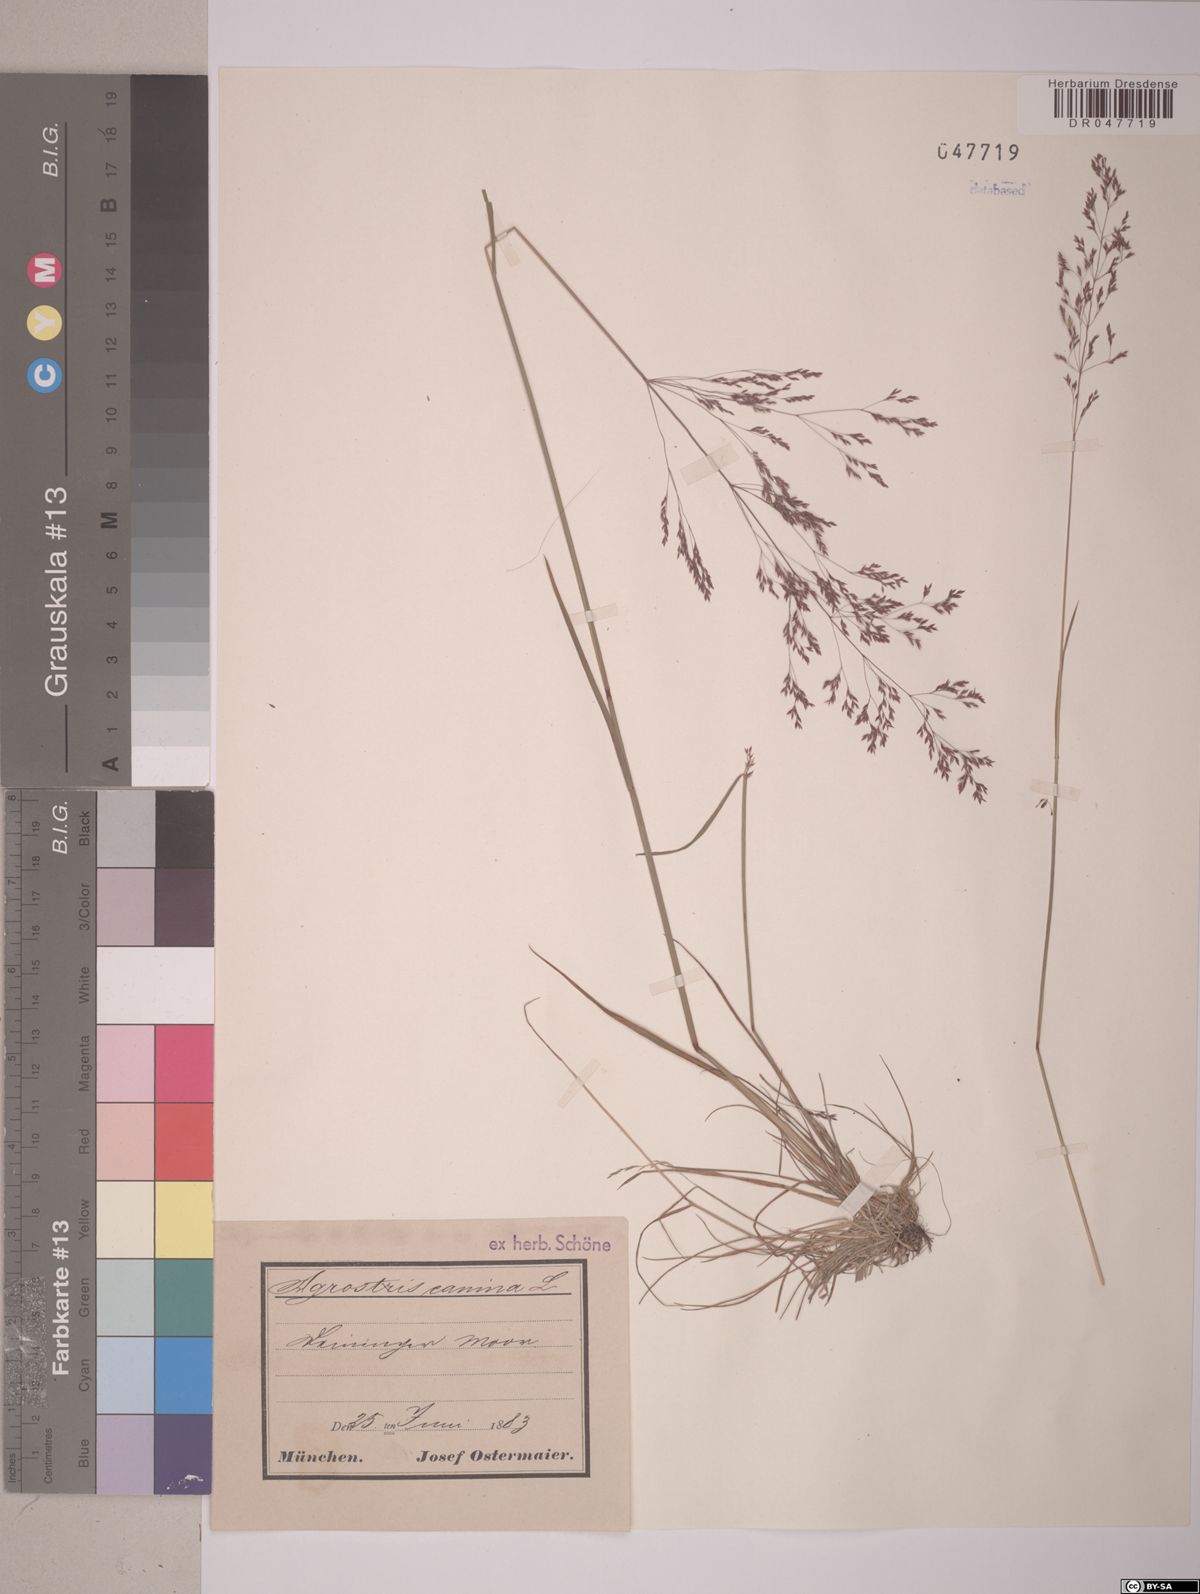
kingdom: Plantae
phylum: Tracheophyta
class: Liliopsida
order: Poales
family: Poaceae
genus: Agrostis
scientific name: Agrostis canina
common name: Velvet bent
